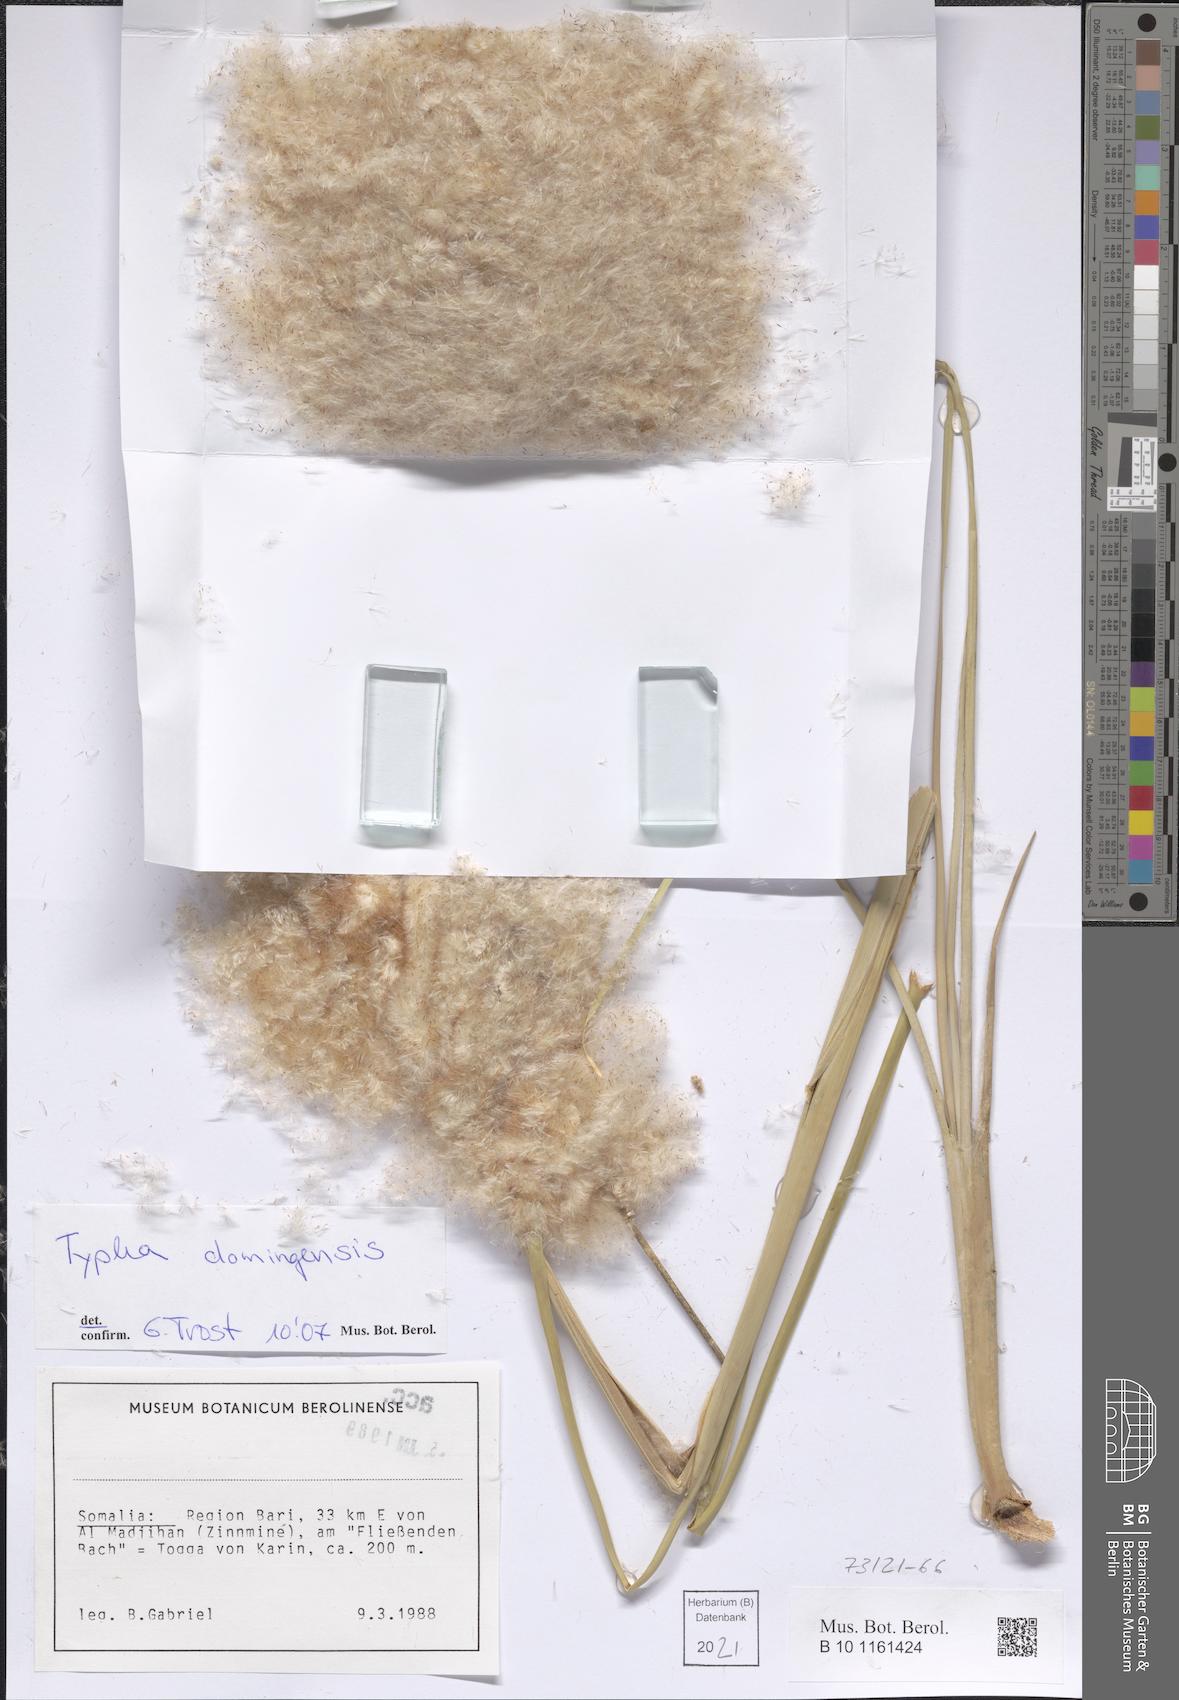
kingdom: Plantae
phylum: Tracheophyta
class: Liliopsida
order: Poales
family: Typhaceae
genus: Typha
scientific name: Typha domingensis
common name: Southern cattail
